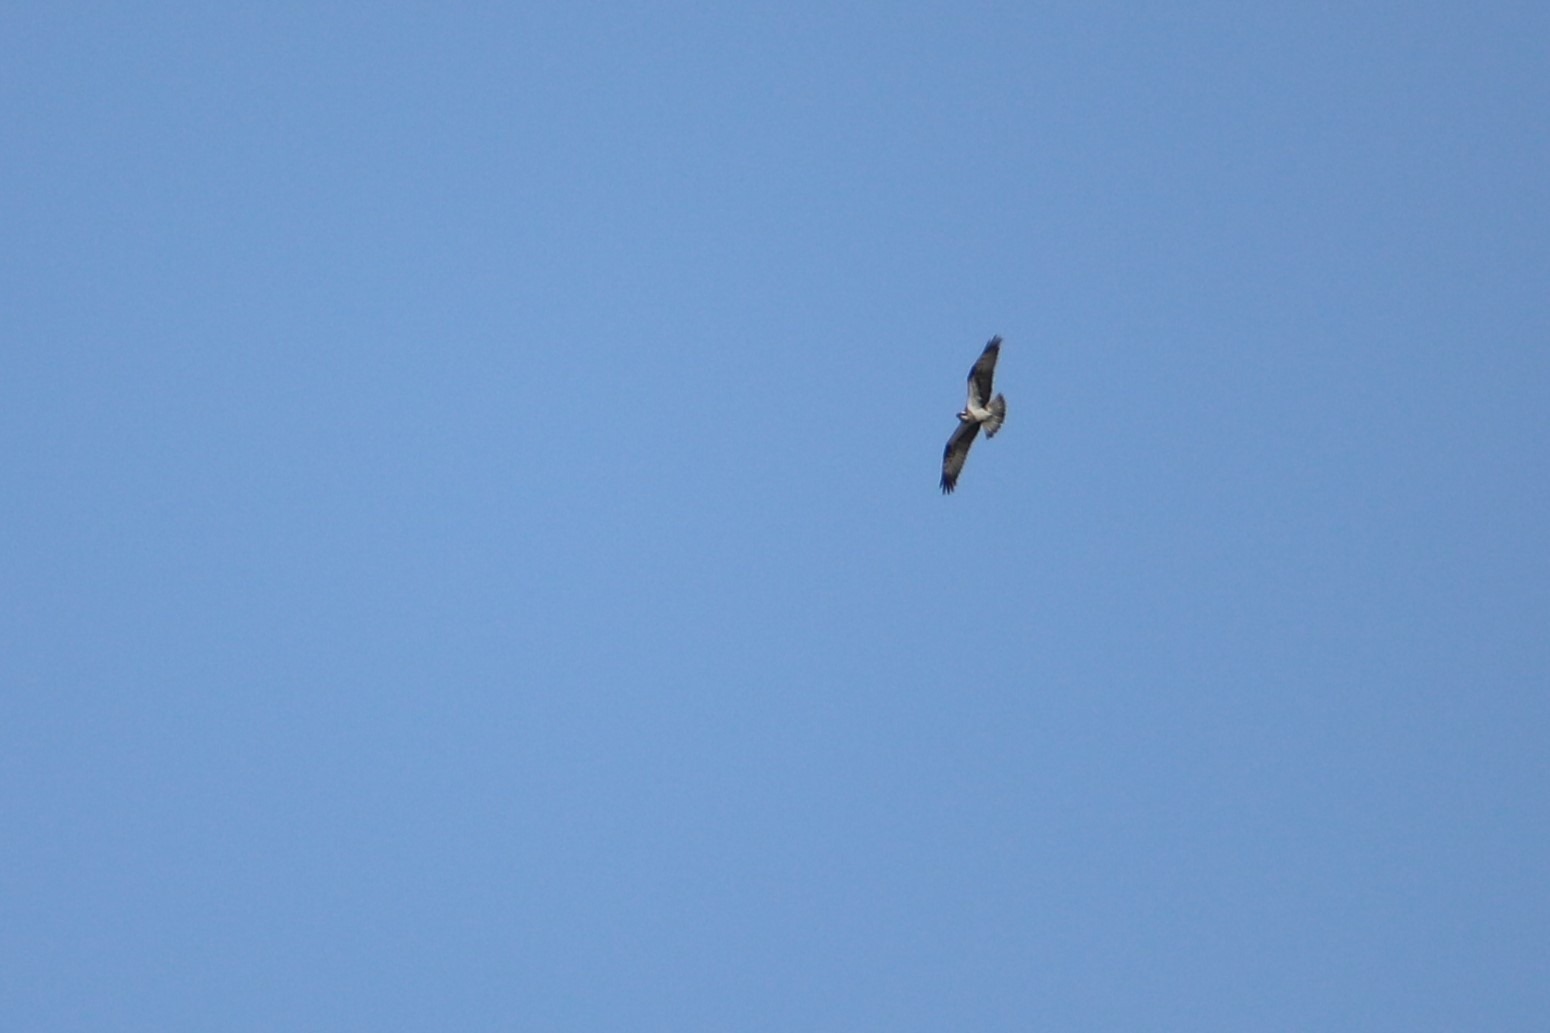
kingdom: Animalia
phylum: Chordata
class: Aves
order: Accipitriformes
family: Pandionidae
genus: Pandion
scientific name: Pandion haliaetus
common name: Fiskeørn
